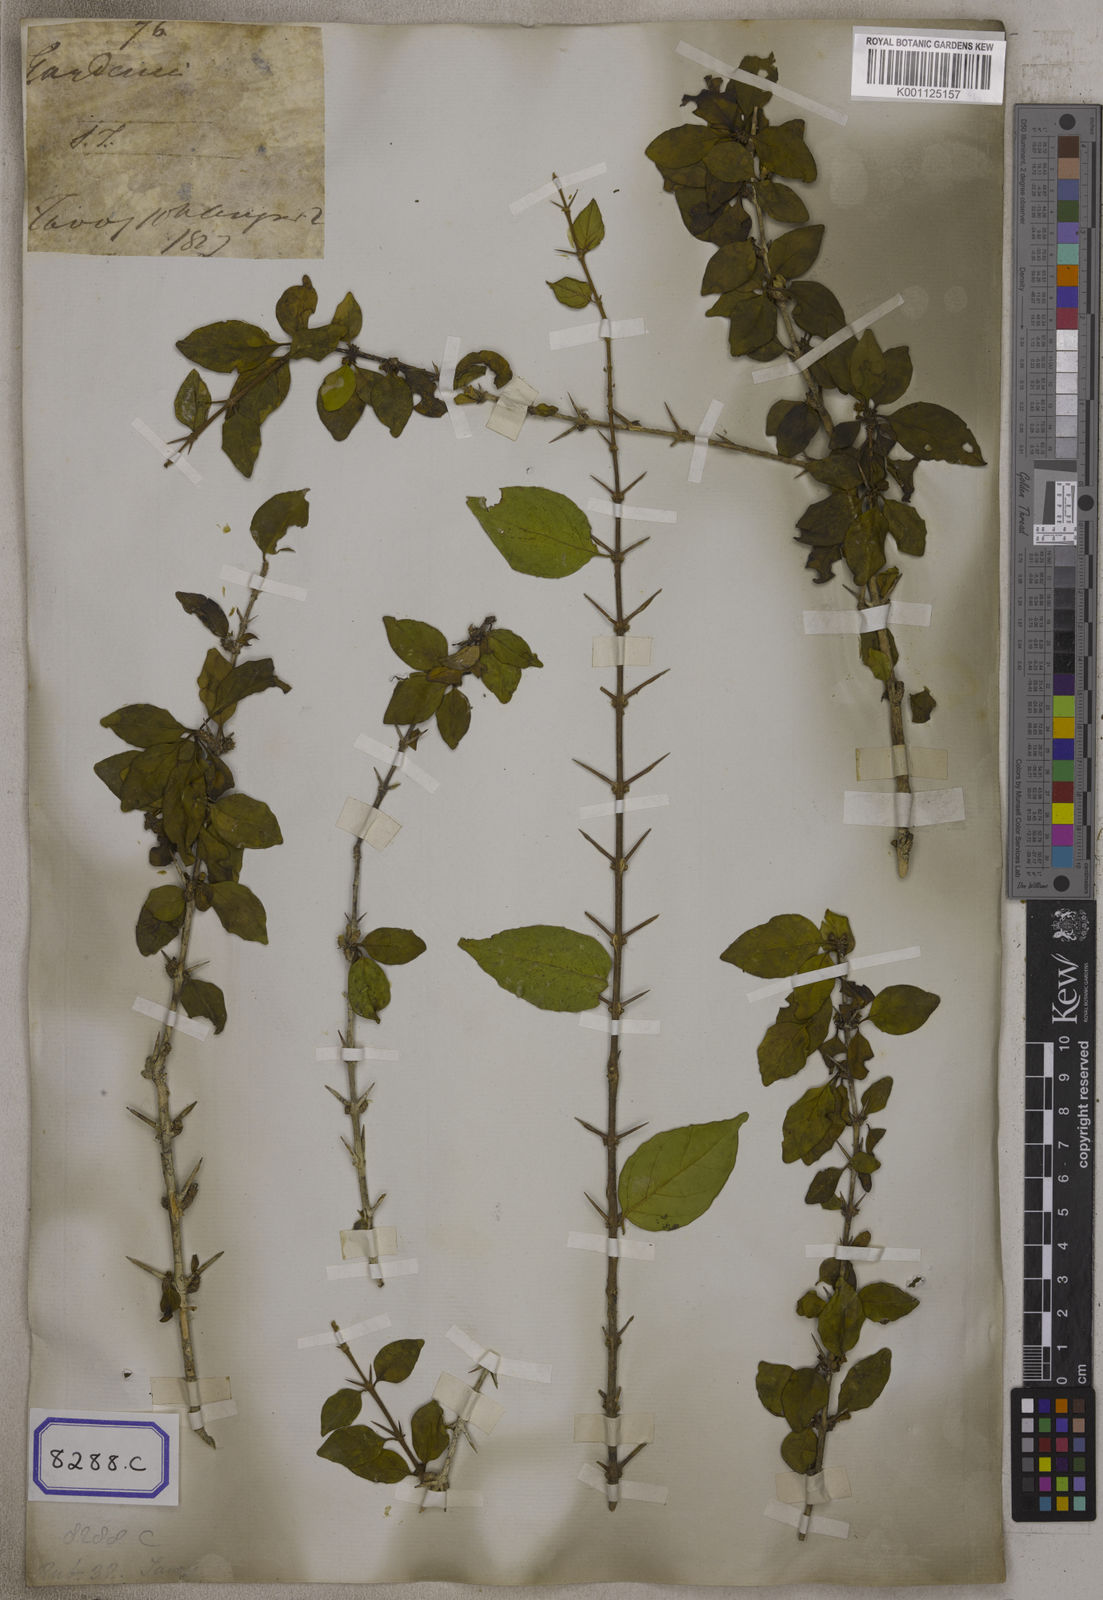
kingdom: Plantae
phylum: Tracheophyta
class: Magnoliopsida
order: Gentianales
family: Rubiaceae
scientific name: Rubiaceae
